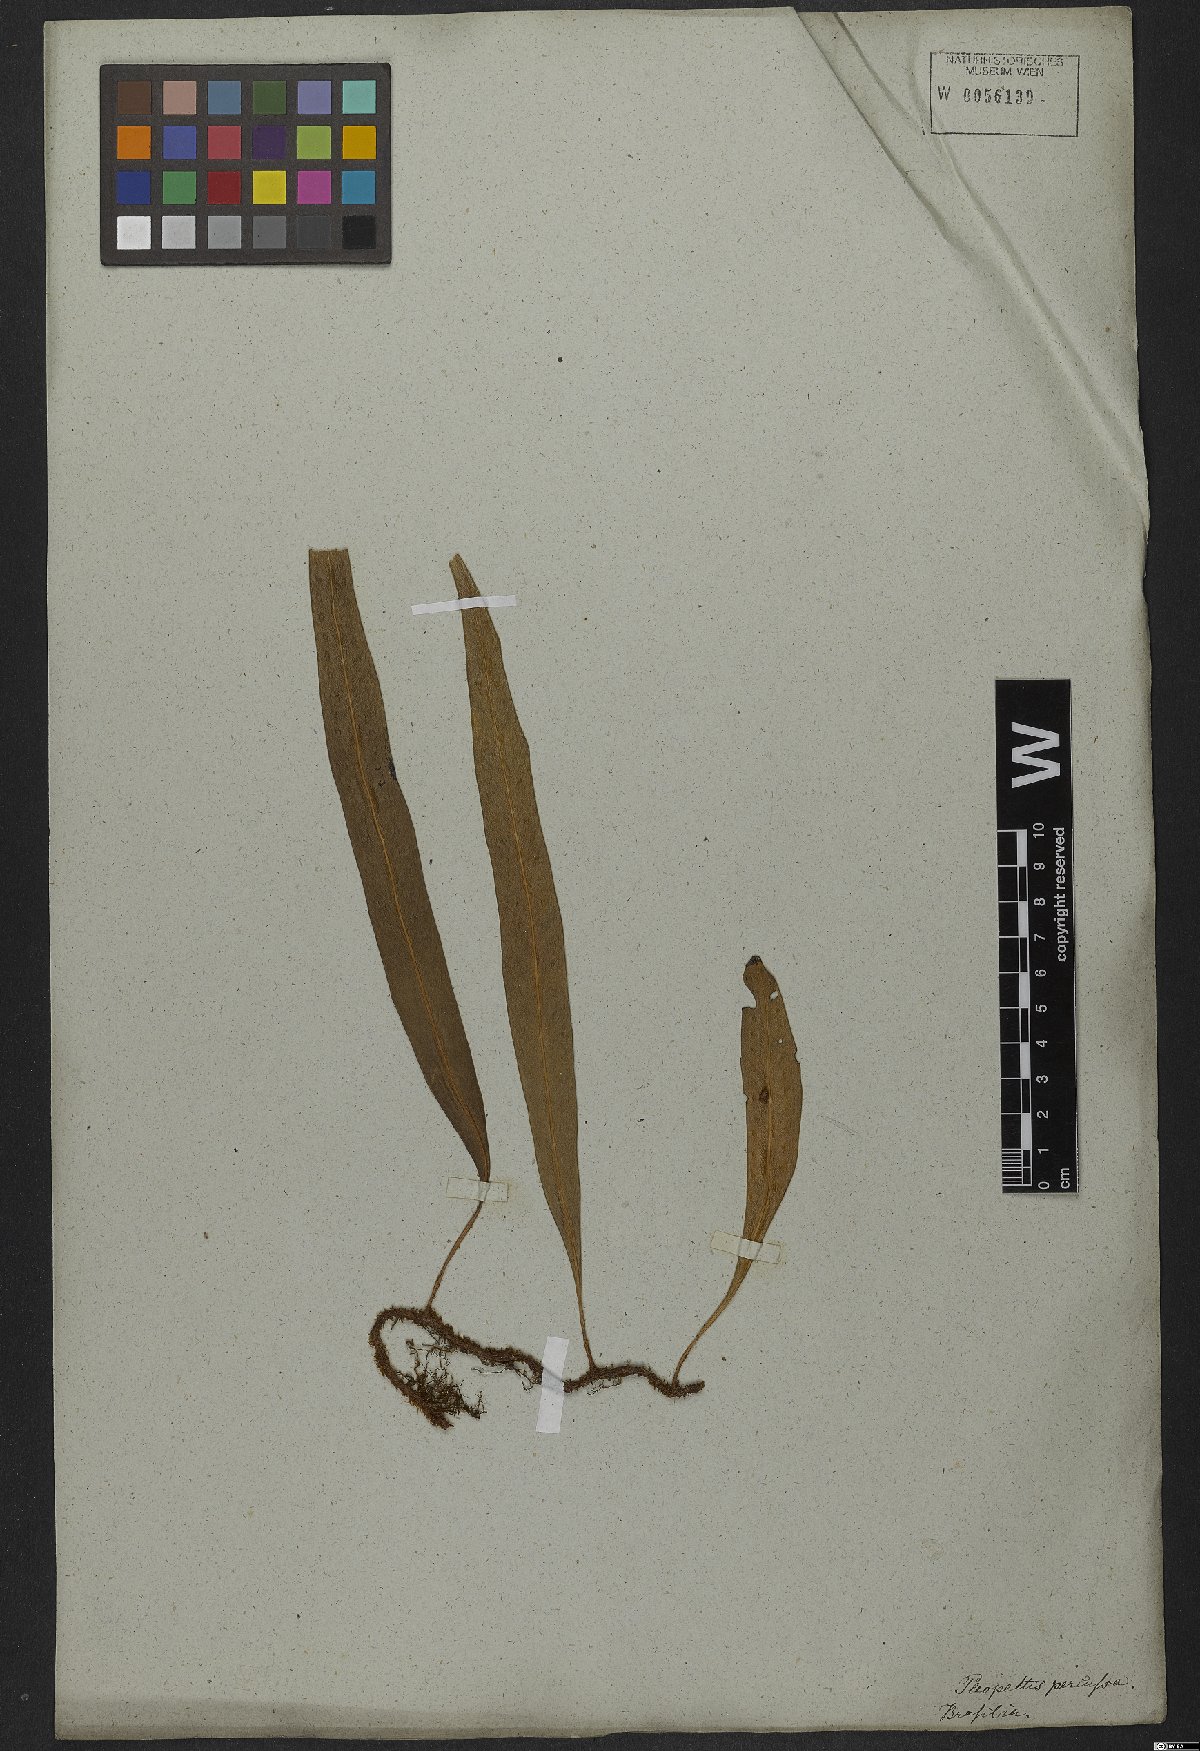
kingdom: Plantae
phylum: Tracheophyta
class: Polypodiopsida
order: Polypodiales
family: Polypodiaceae
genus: Microgramma
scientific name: Microgramma percussa
